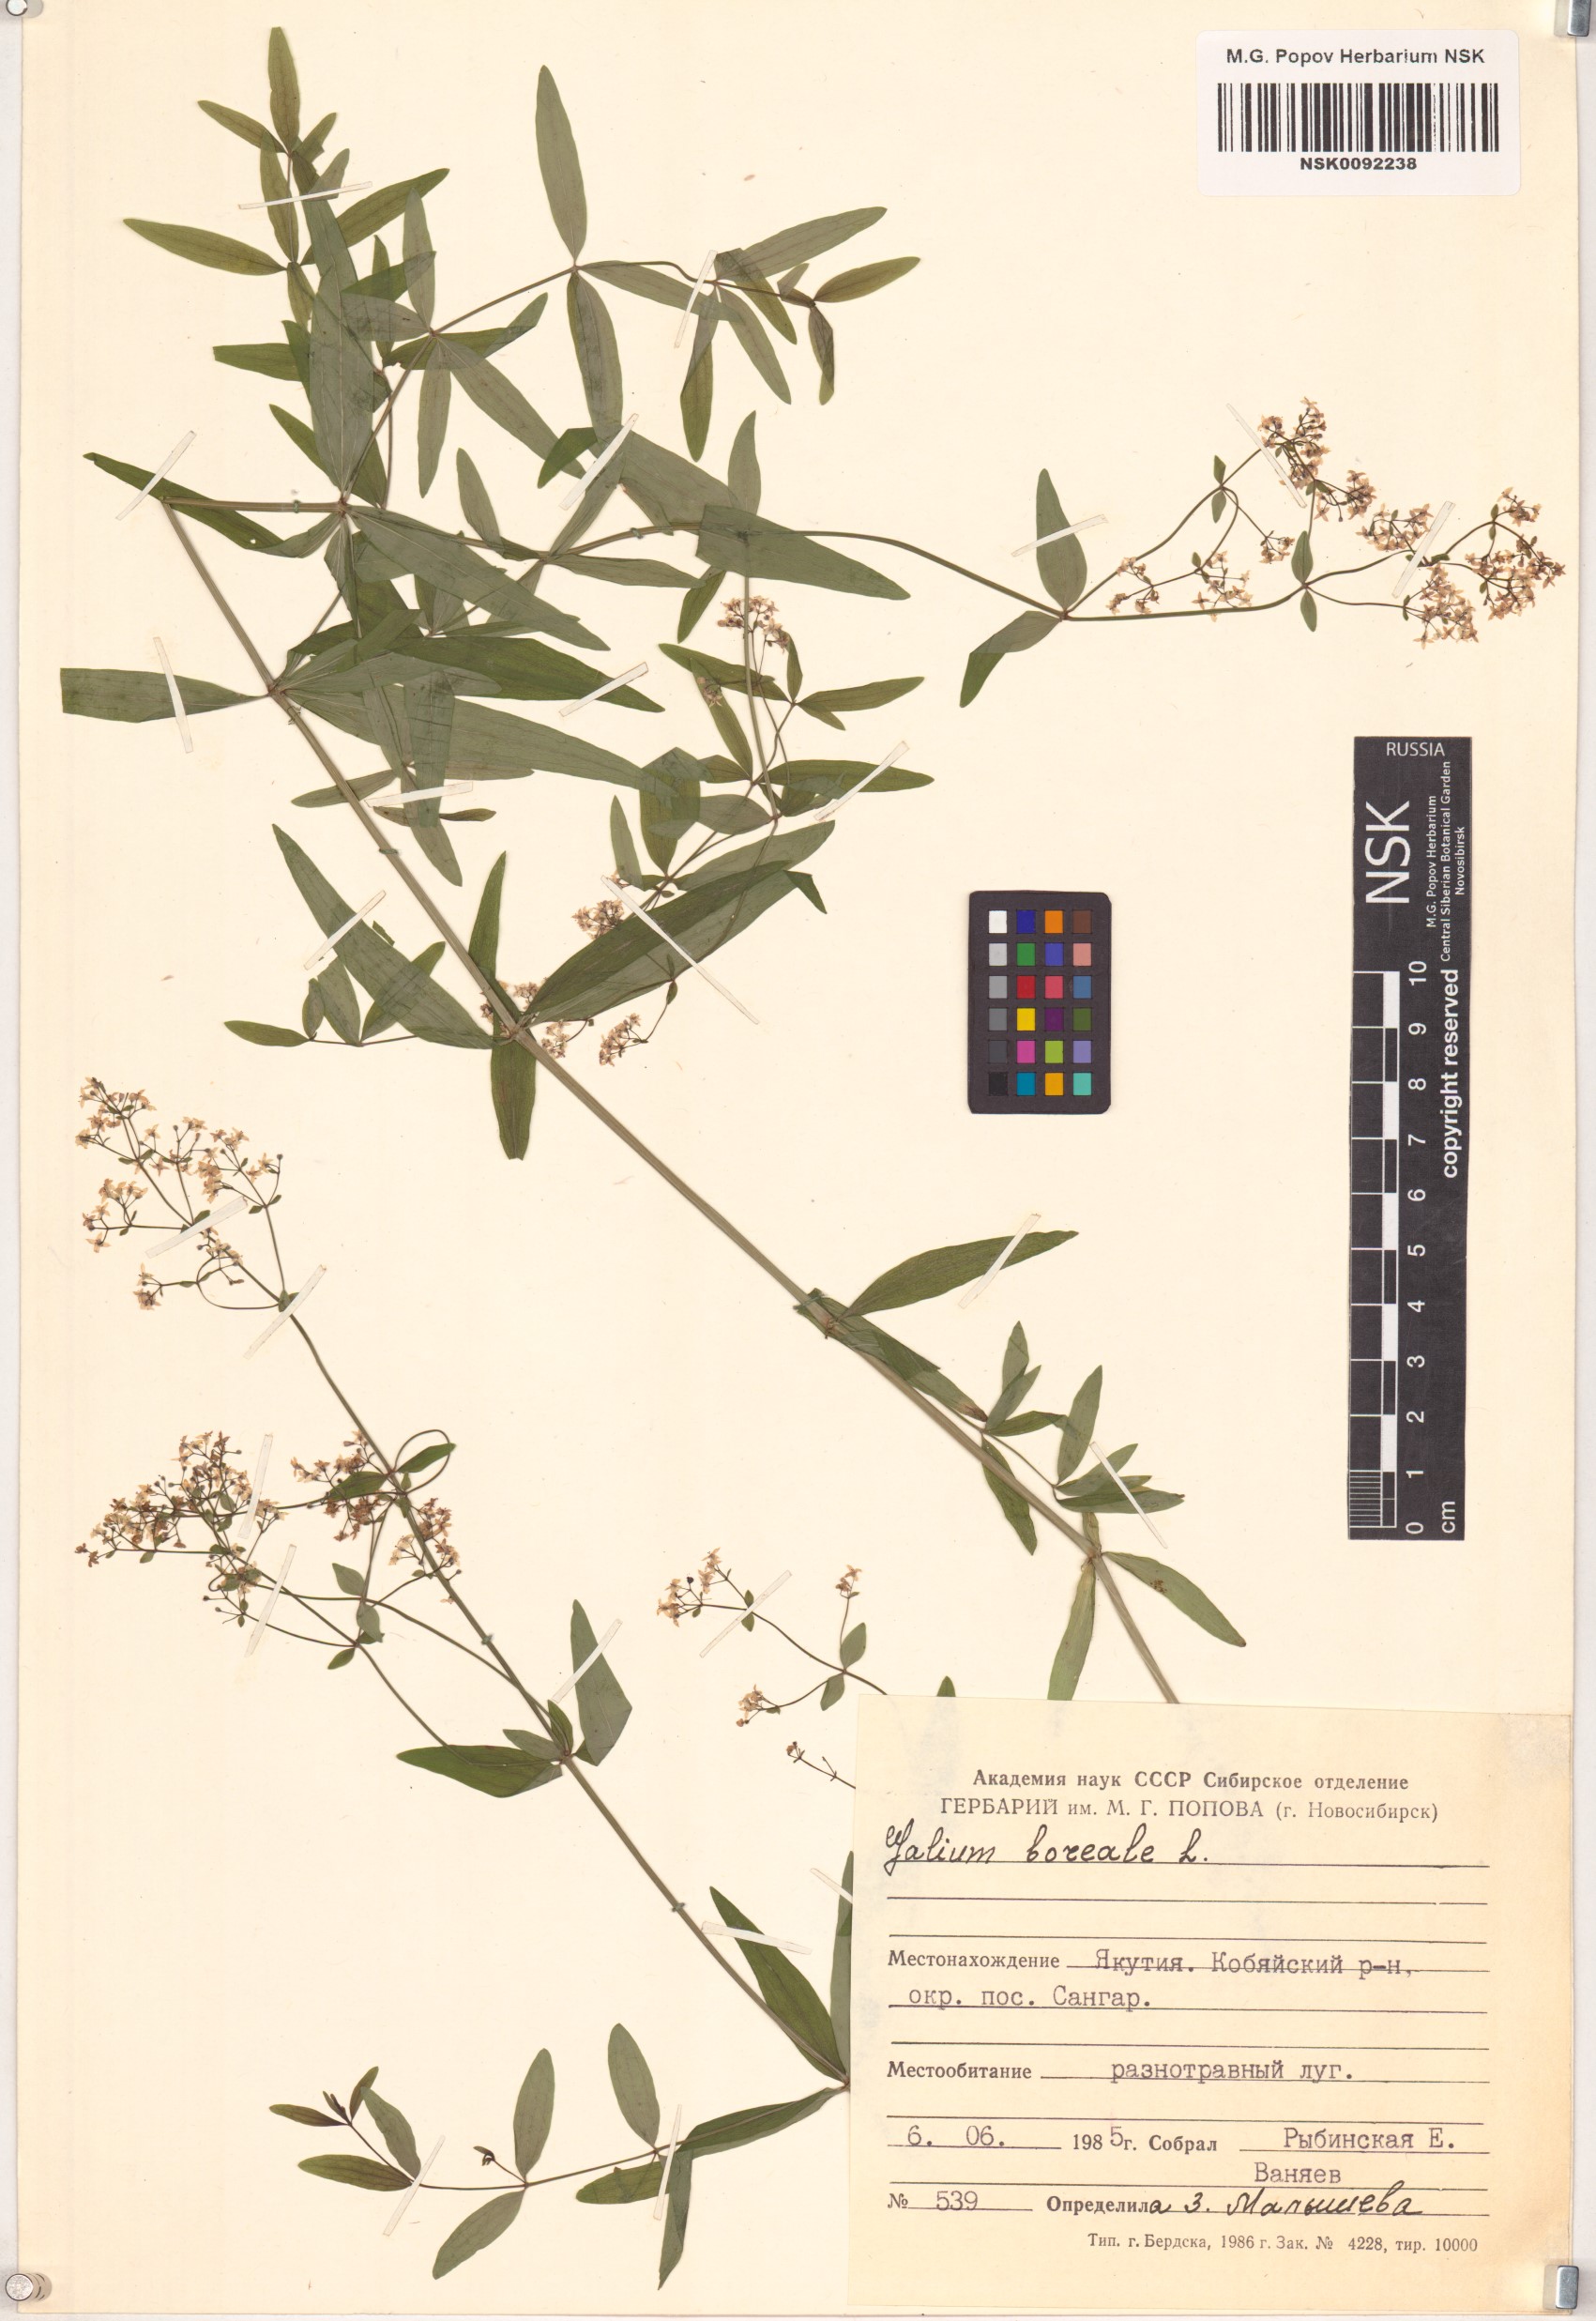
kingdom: Plantae
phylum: Tracheophyta
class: Magnoliopsida
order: Gentianales
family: Rubiaceae
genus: Galium
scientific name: Galium boreale
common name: Northern bedstraw
